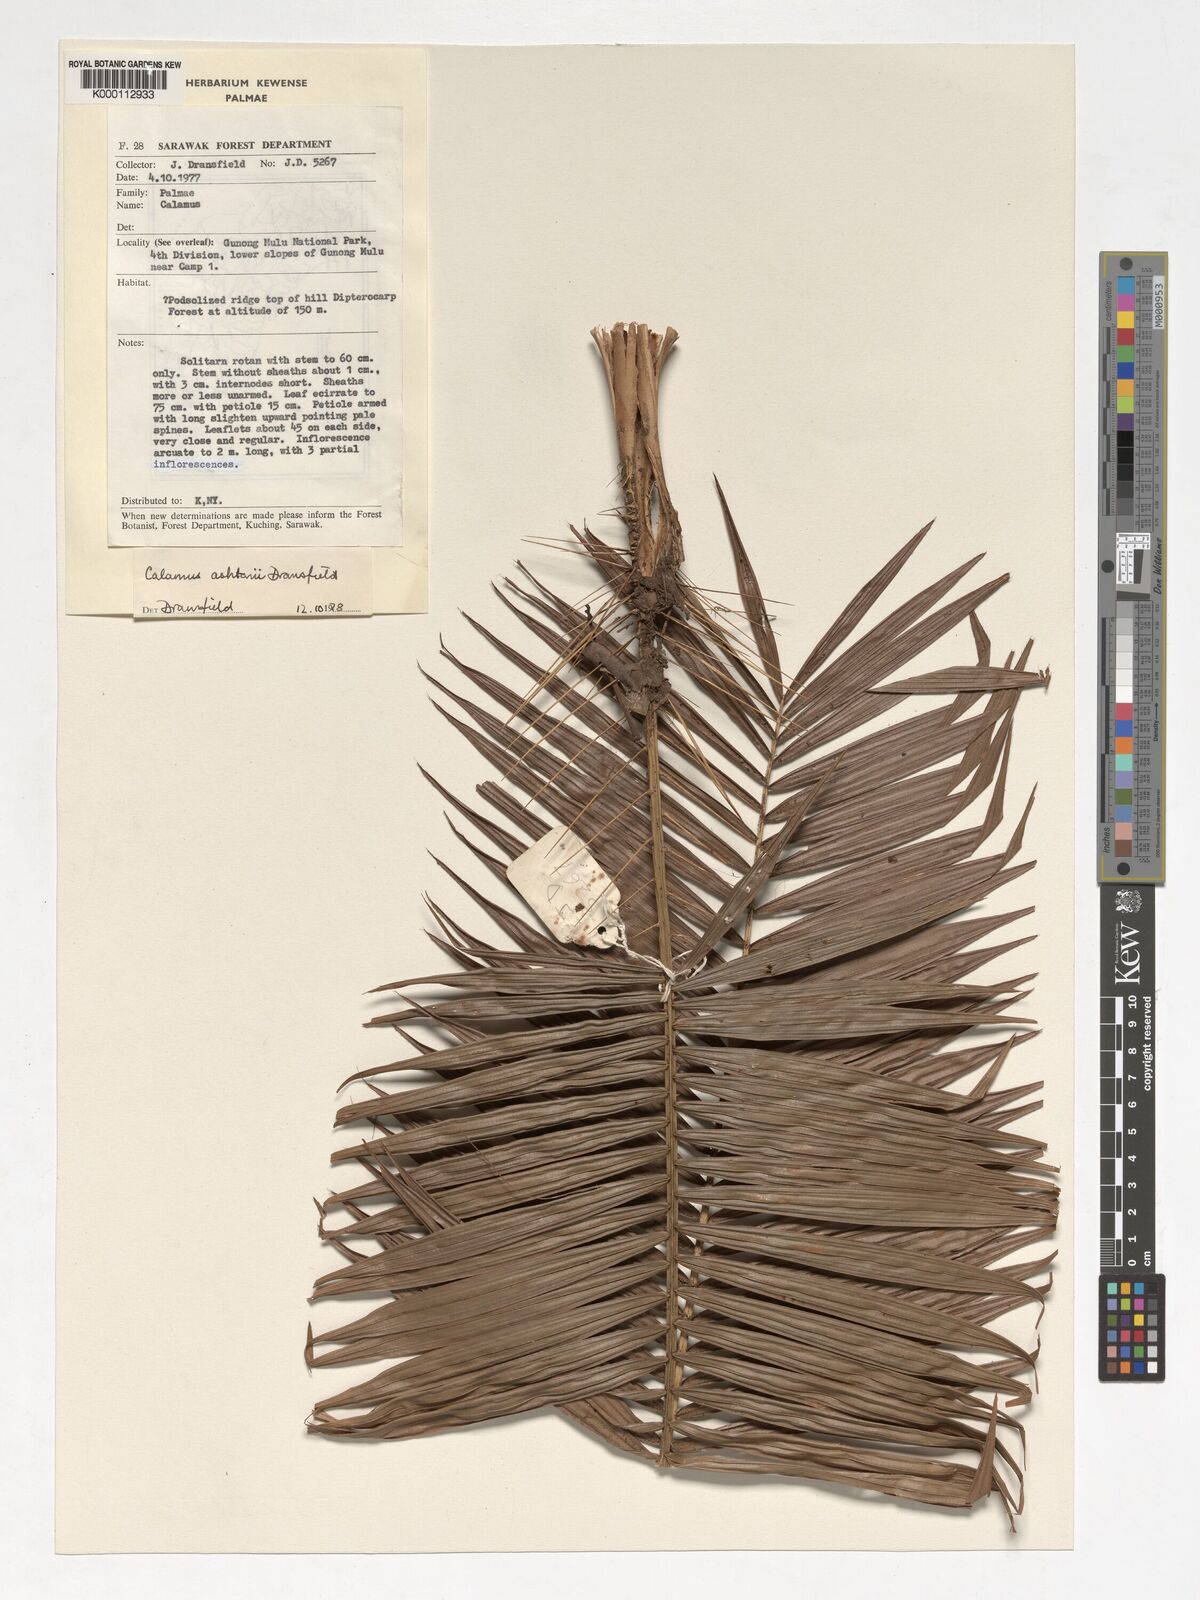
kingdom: Plantae
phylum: Tracheophyta
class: Liliopsida
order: Arecales
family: Arecaceae
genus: Calamus
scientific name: Calamus ashtonii
